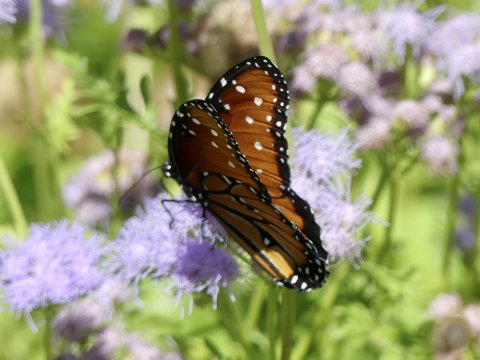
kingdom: Animalia
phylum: Arthropoda
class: Insecta
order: Lepidoptera
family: Nymphalidae
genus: Danaus
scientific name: Danaus gilippus
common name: Queen
